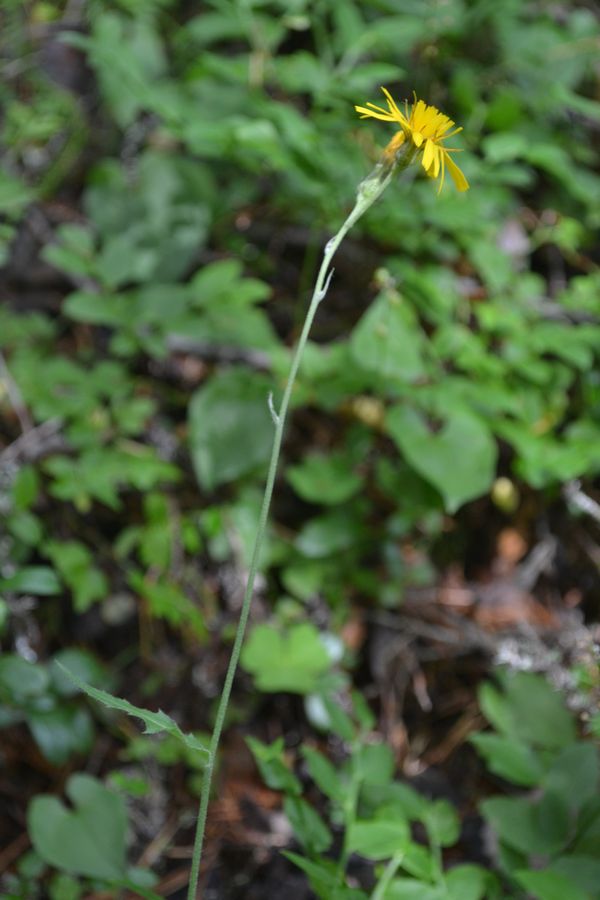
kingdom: Plantae
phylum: Tracheophyta
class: Magnoliopsida
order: Asterales
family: Asteraceae
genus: Hieracium
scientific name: Hieracium lachenalii
